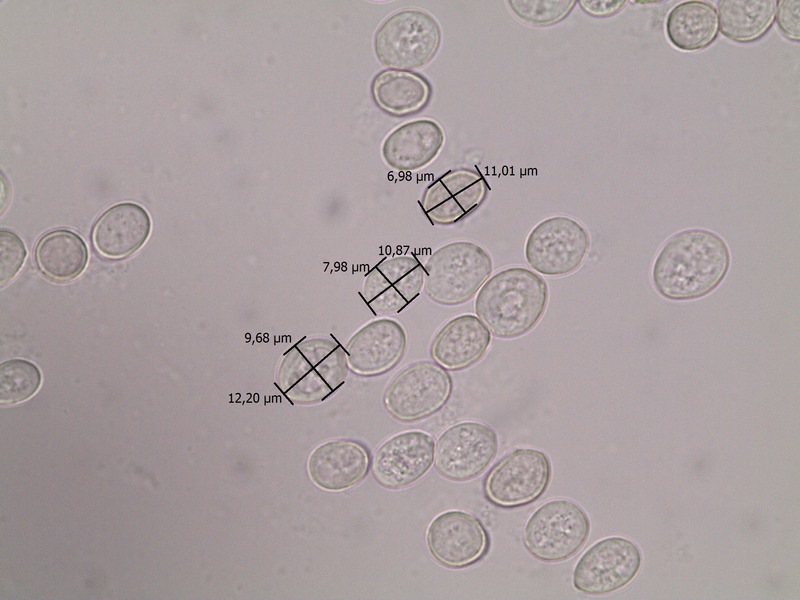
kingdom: Fungi
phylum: Basidiomycota
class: Pucciniomycetes
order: Pucciniales
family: Pucciniaceae
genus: Puccinia
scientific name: Puccinia urticata
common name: Nettle clustercup rust fungus
